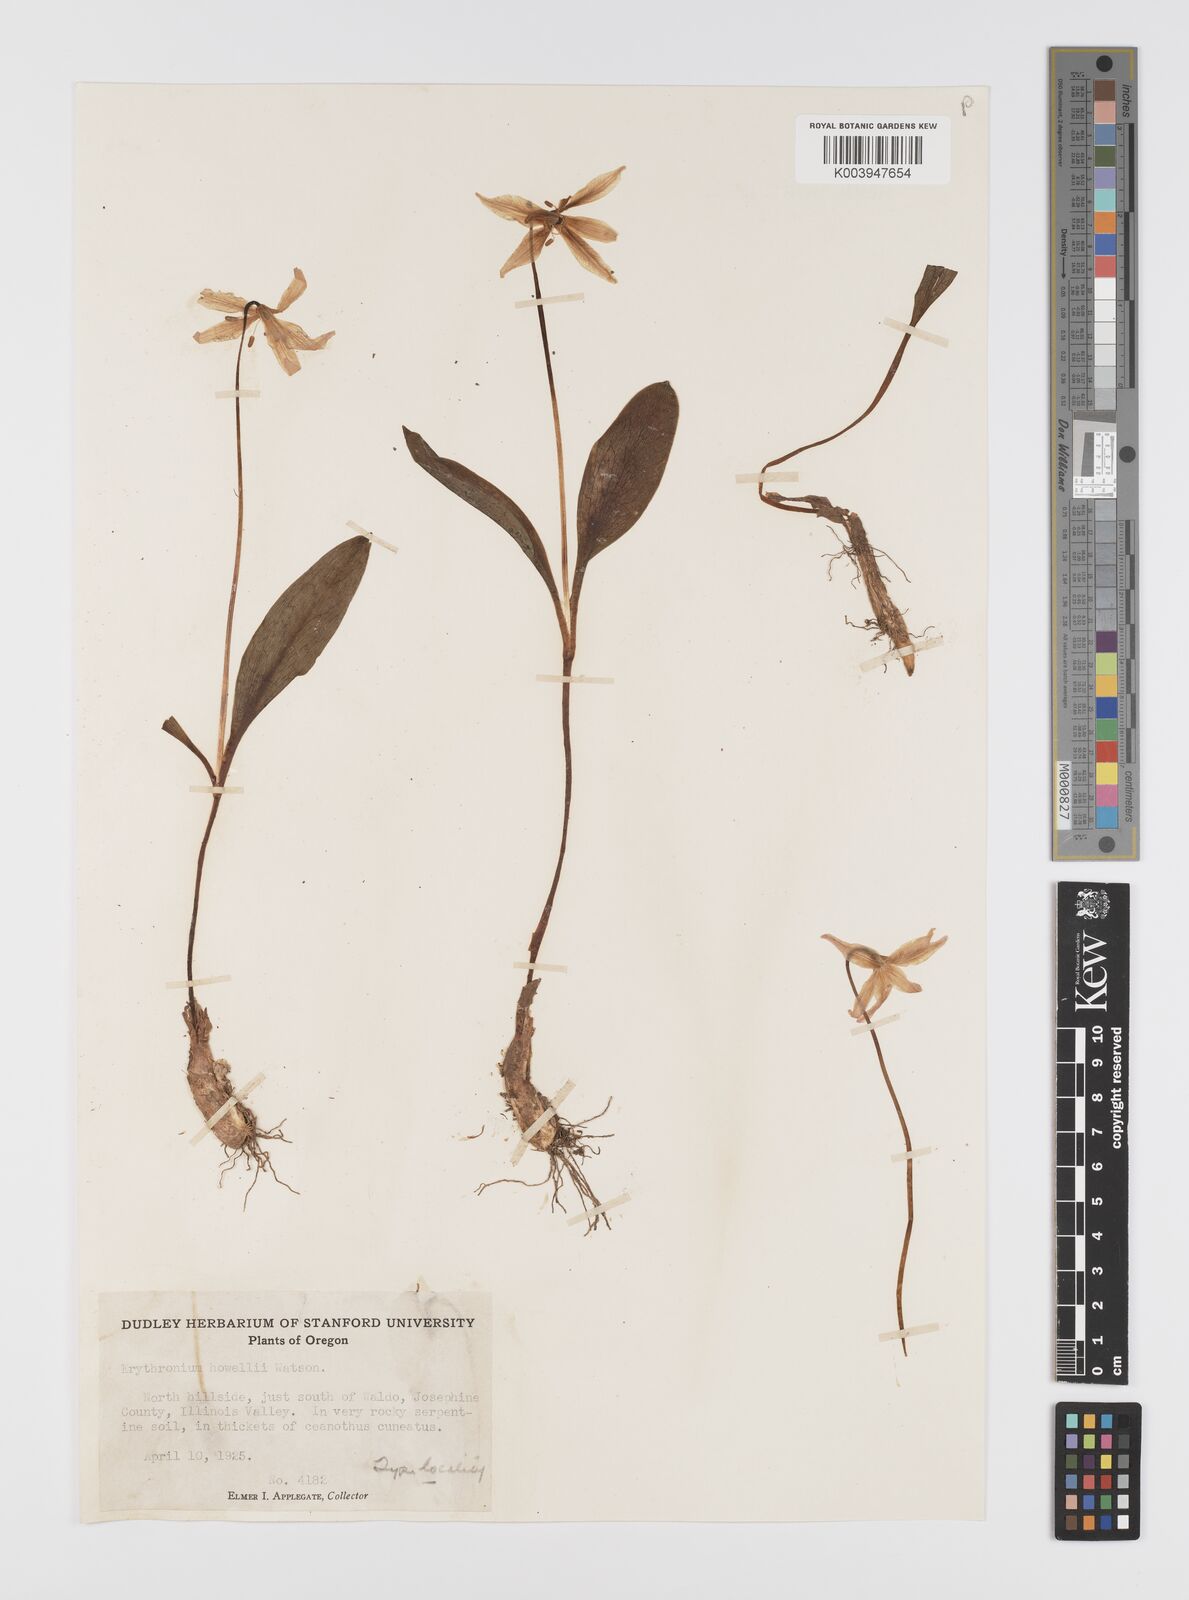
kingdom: Plantae
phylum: Tracheophyta
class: Liliopsida
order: Liliales
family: Liliaceae
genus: Erythronium
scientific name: Erythronium howellii
